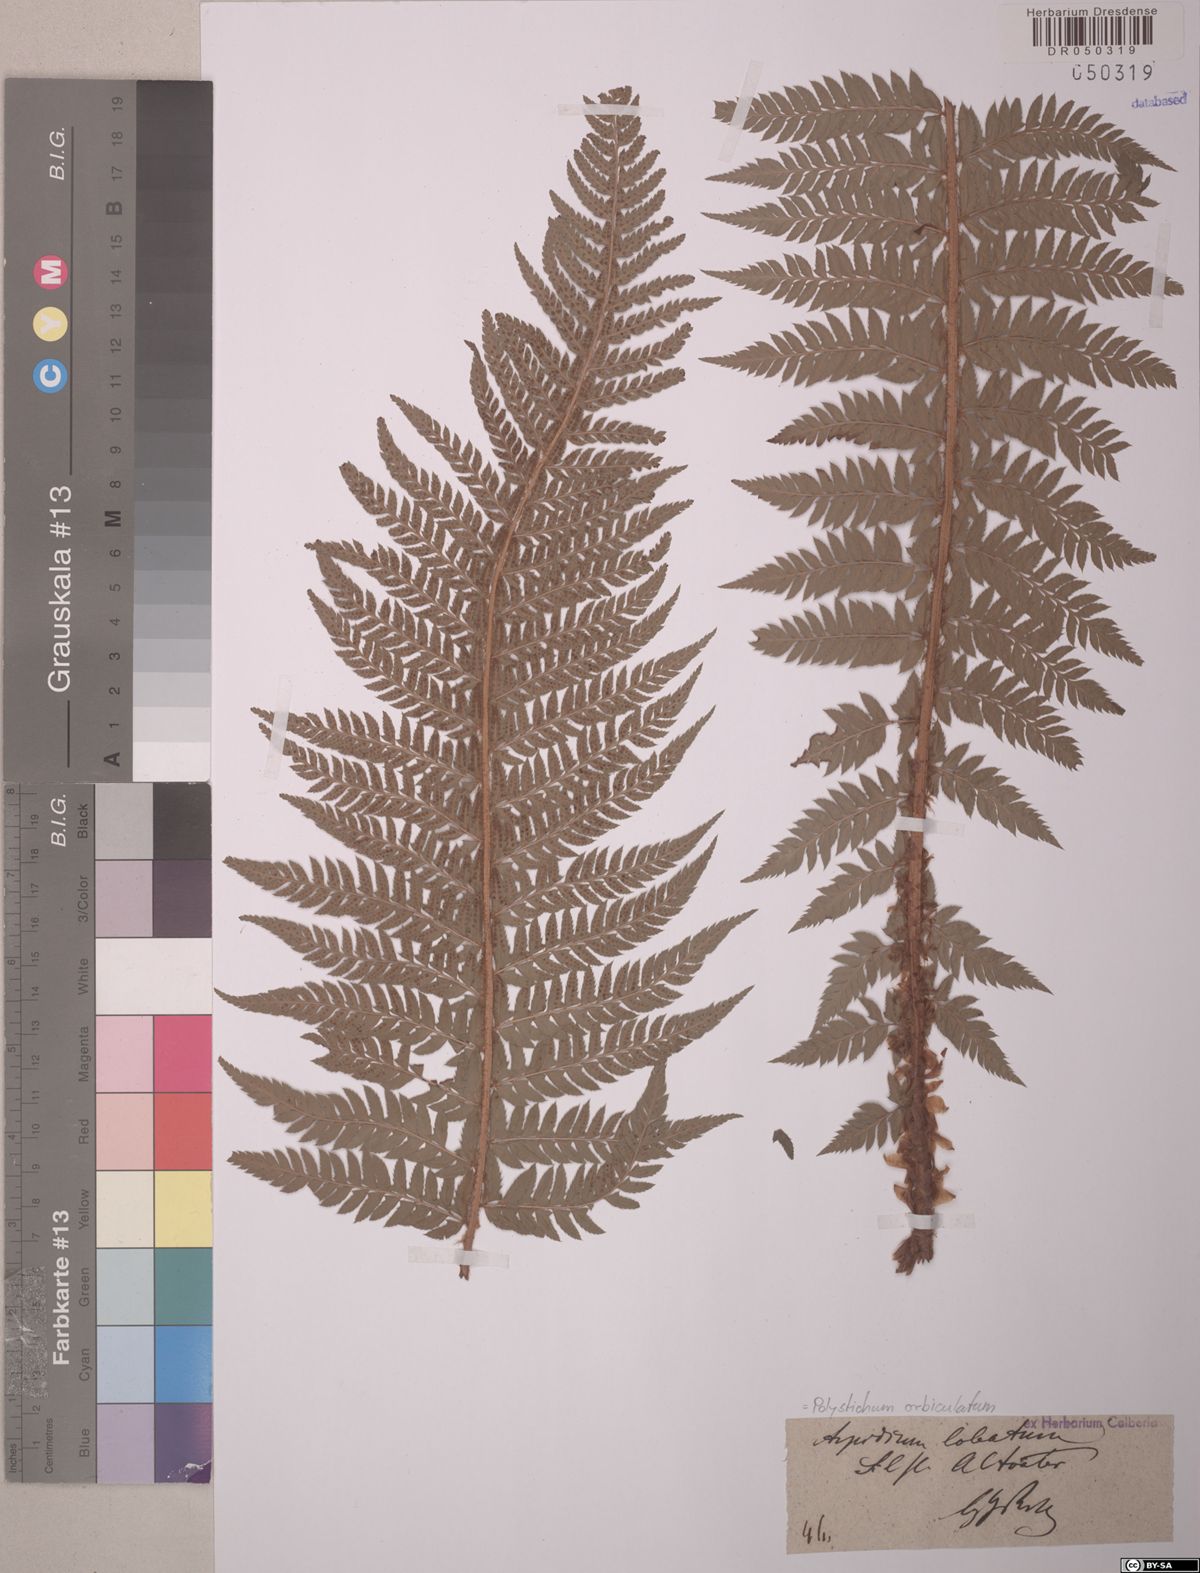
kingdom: Plantae
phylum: Tracheophyta
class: Polypodiopsida
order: Polypodiales
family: Dryopteridaceae
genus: Polystichum
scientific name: Polystichum aculeatum
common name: Hard shield-fern
